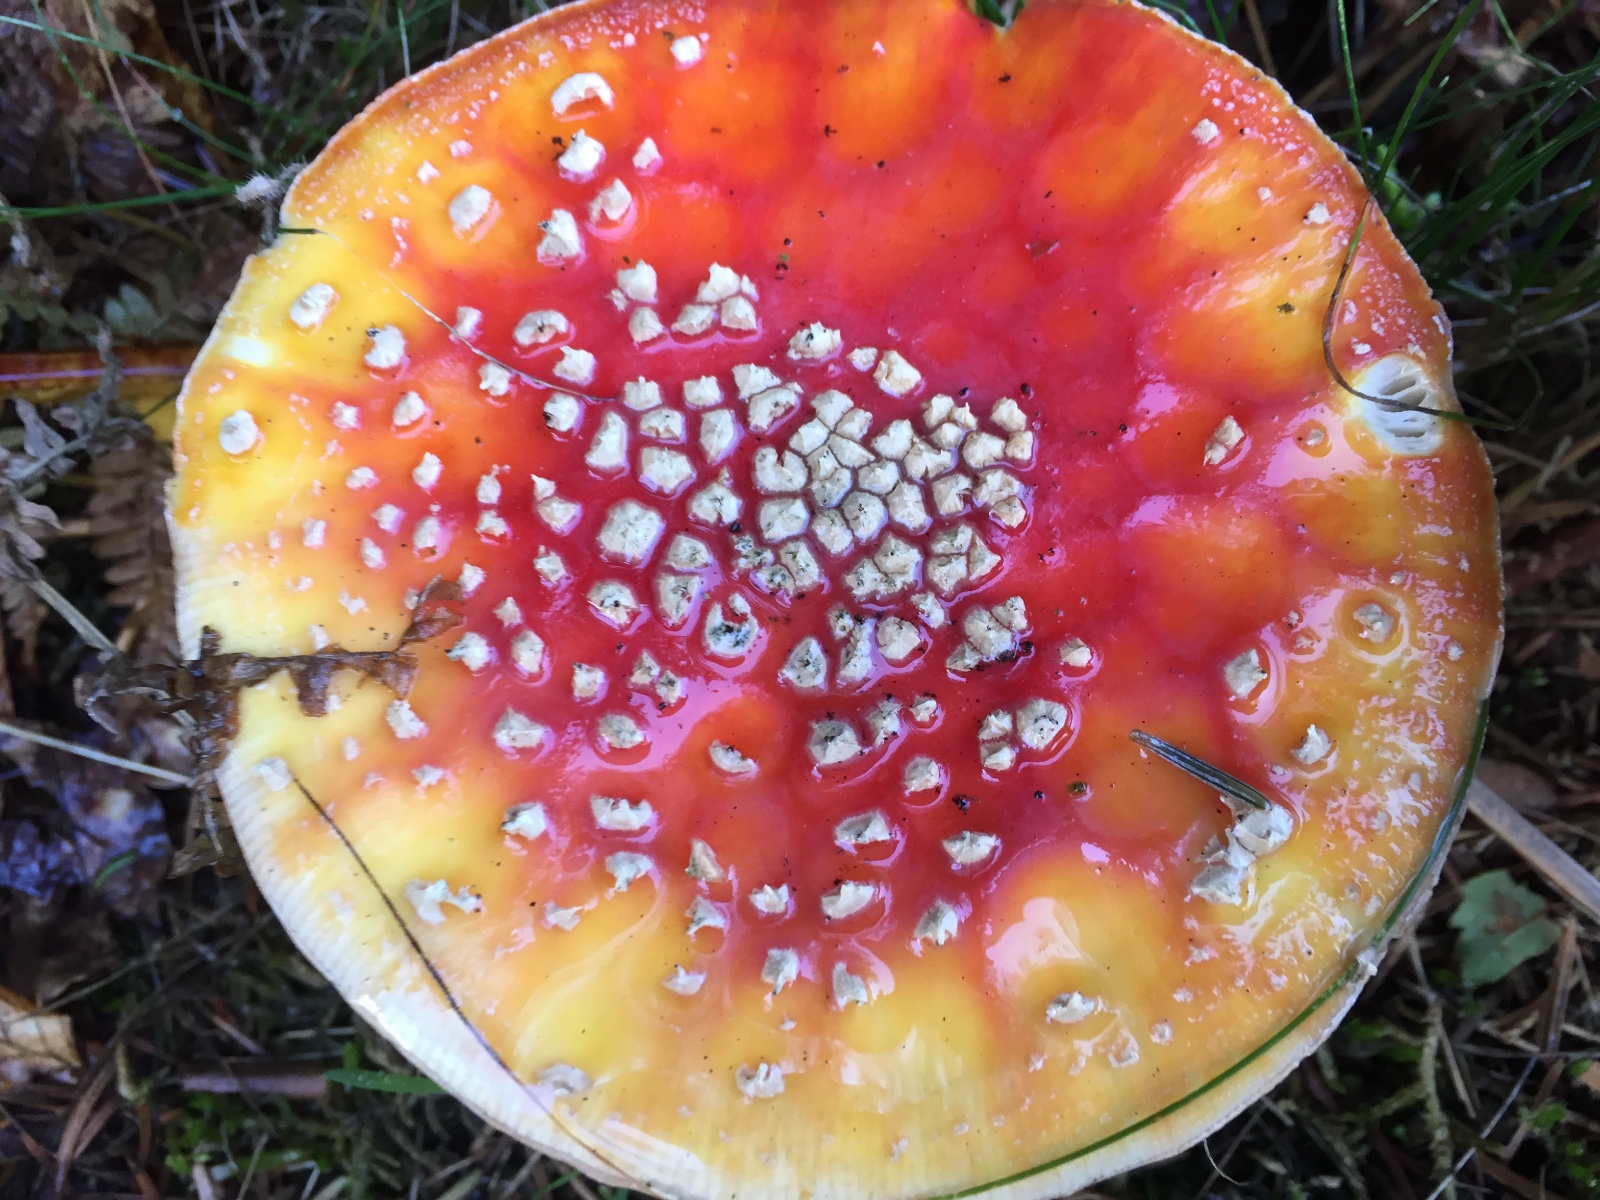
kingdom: Fungi
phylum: Basidiomycota
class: Agaricomycetes
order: Agaricales
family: Amanitaceae
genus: Amanita
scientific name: Amanita muscaria
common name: rød fluesvamp
